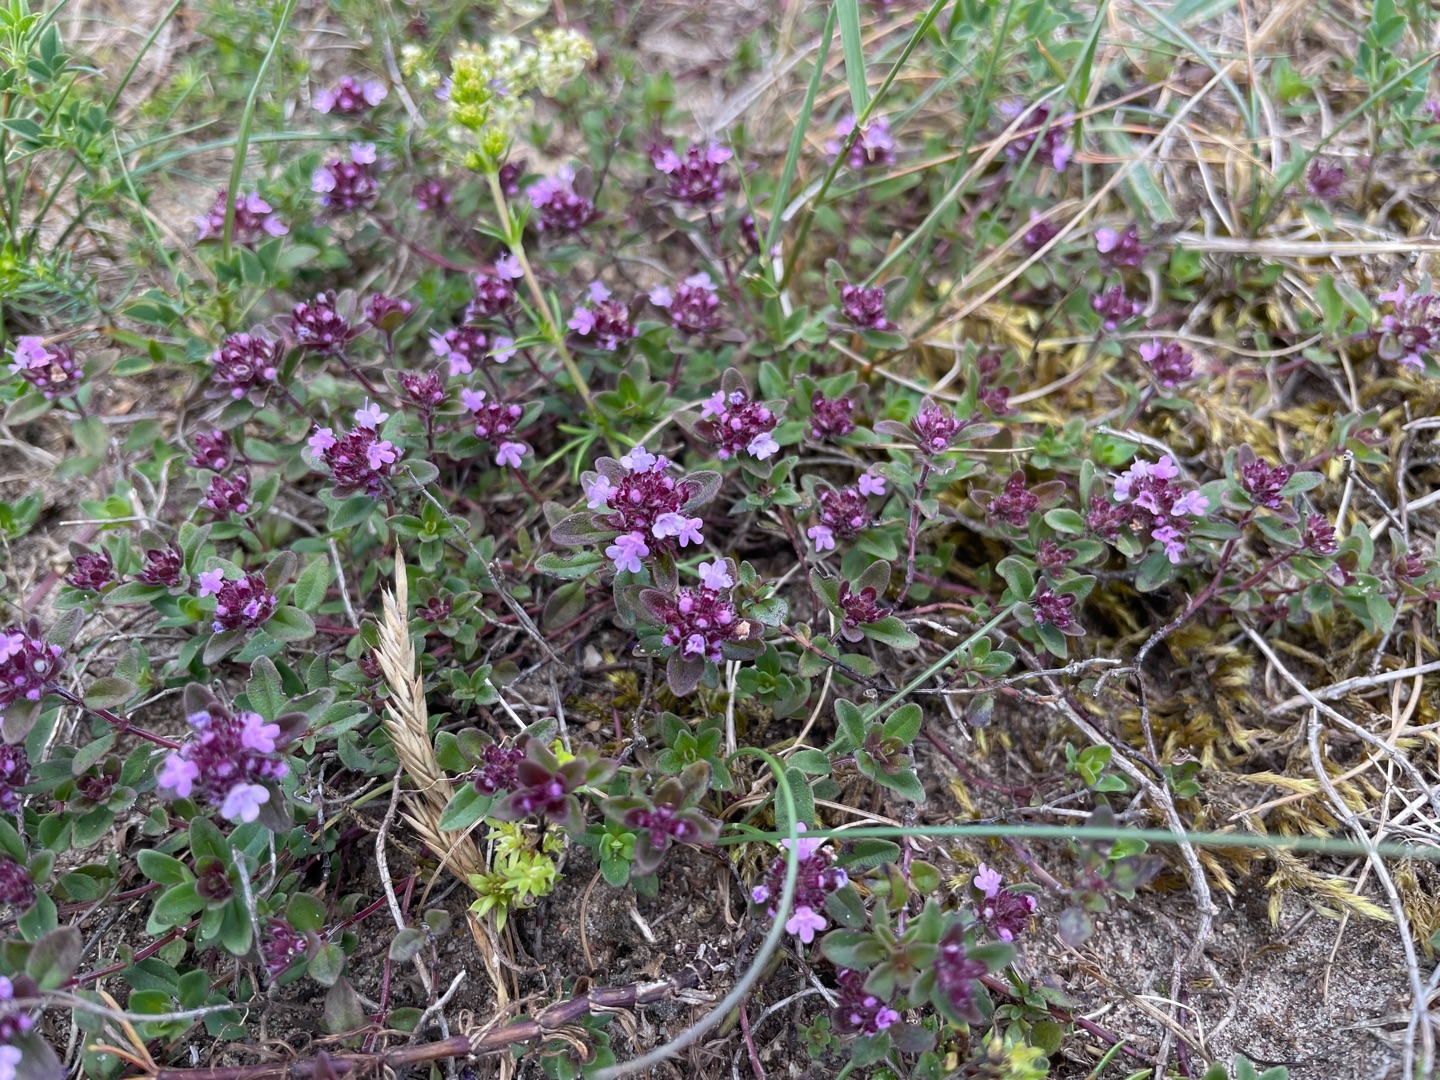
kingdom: Plantae
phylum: Tracheophyta
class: Magnoliopsida
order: Lamiales
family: Lamiaceae
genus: Thymus
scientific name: Thymus pulegioides
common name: Bredbladet timian
